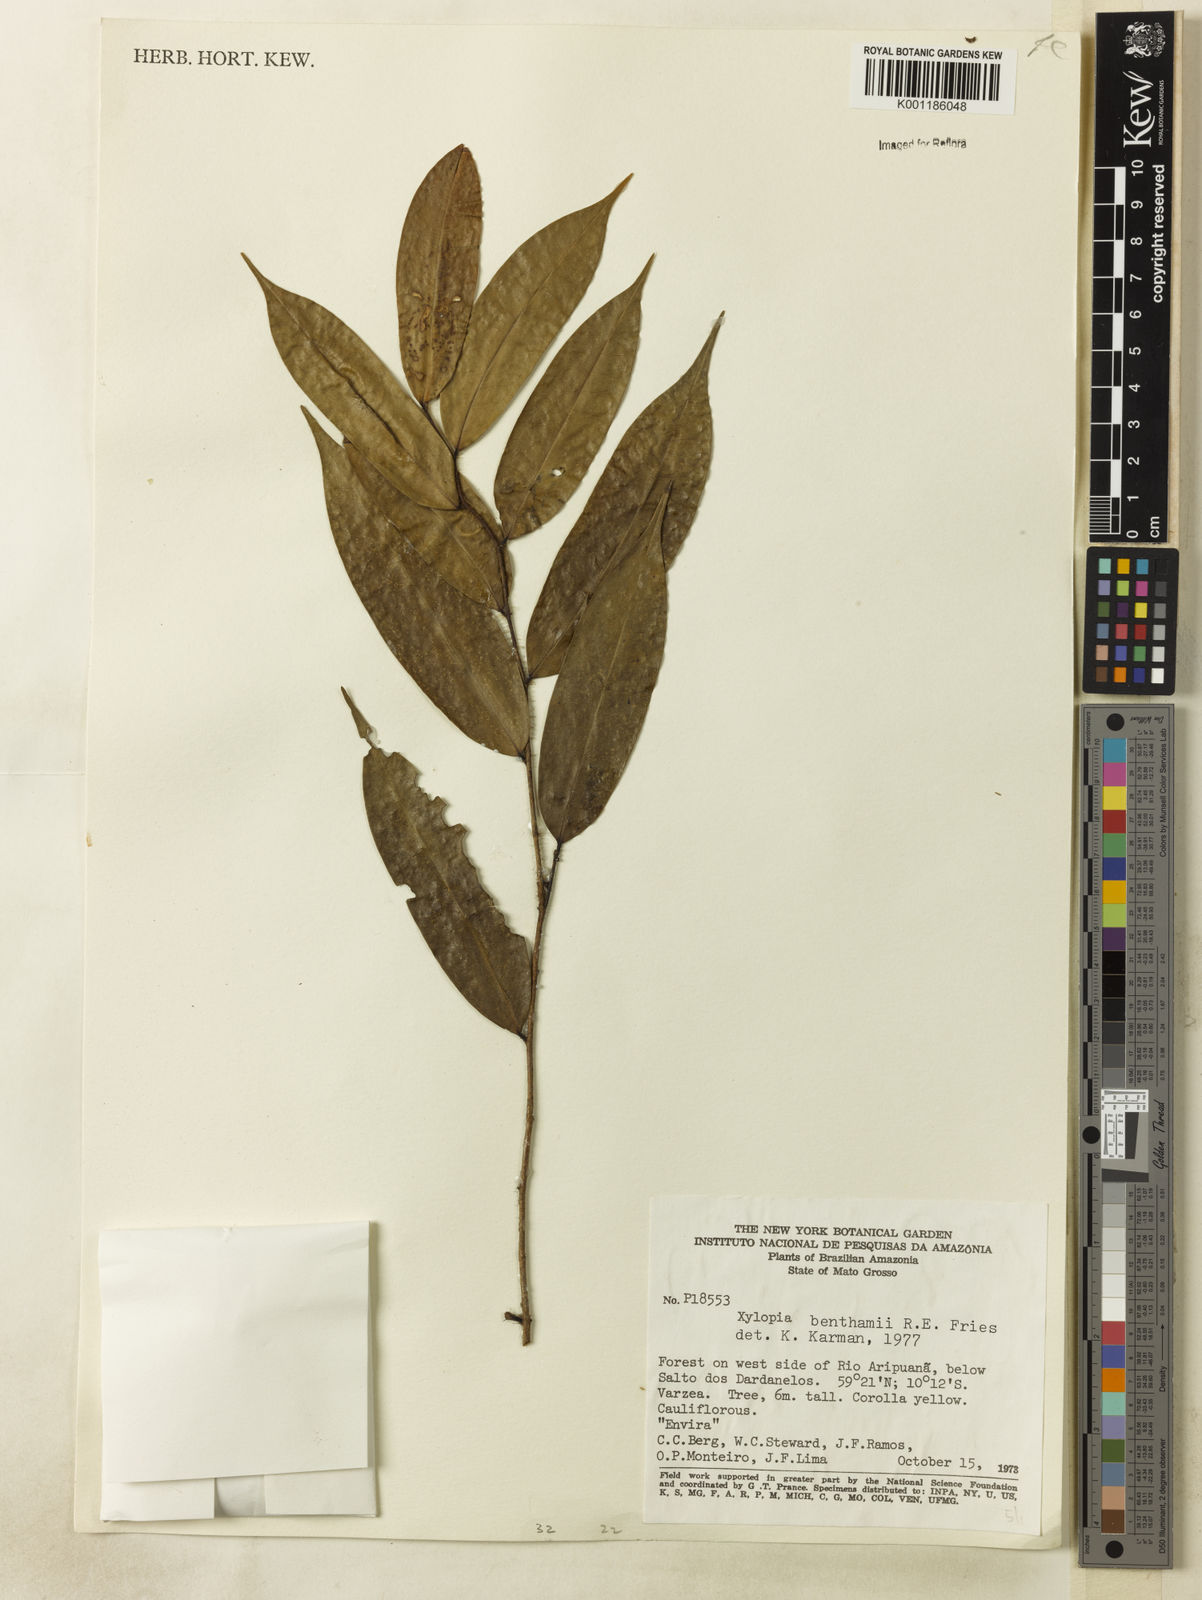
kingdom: Plantae
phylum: Tracheophyta
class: Magnoliopsida
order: Magnoliales
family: Annonaceae
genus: Xylopia
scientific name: Xylopia benthamii
